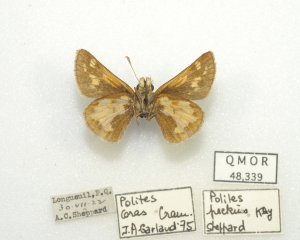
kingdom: Animalia
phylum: Arthropoda
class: Insecta
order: Lepidoptera
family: Hesperiidae
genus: Polites
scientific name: Polites coras
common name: Peck's Skipper
